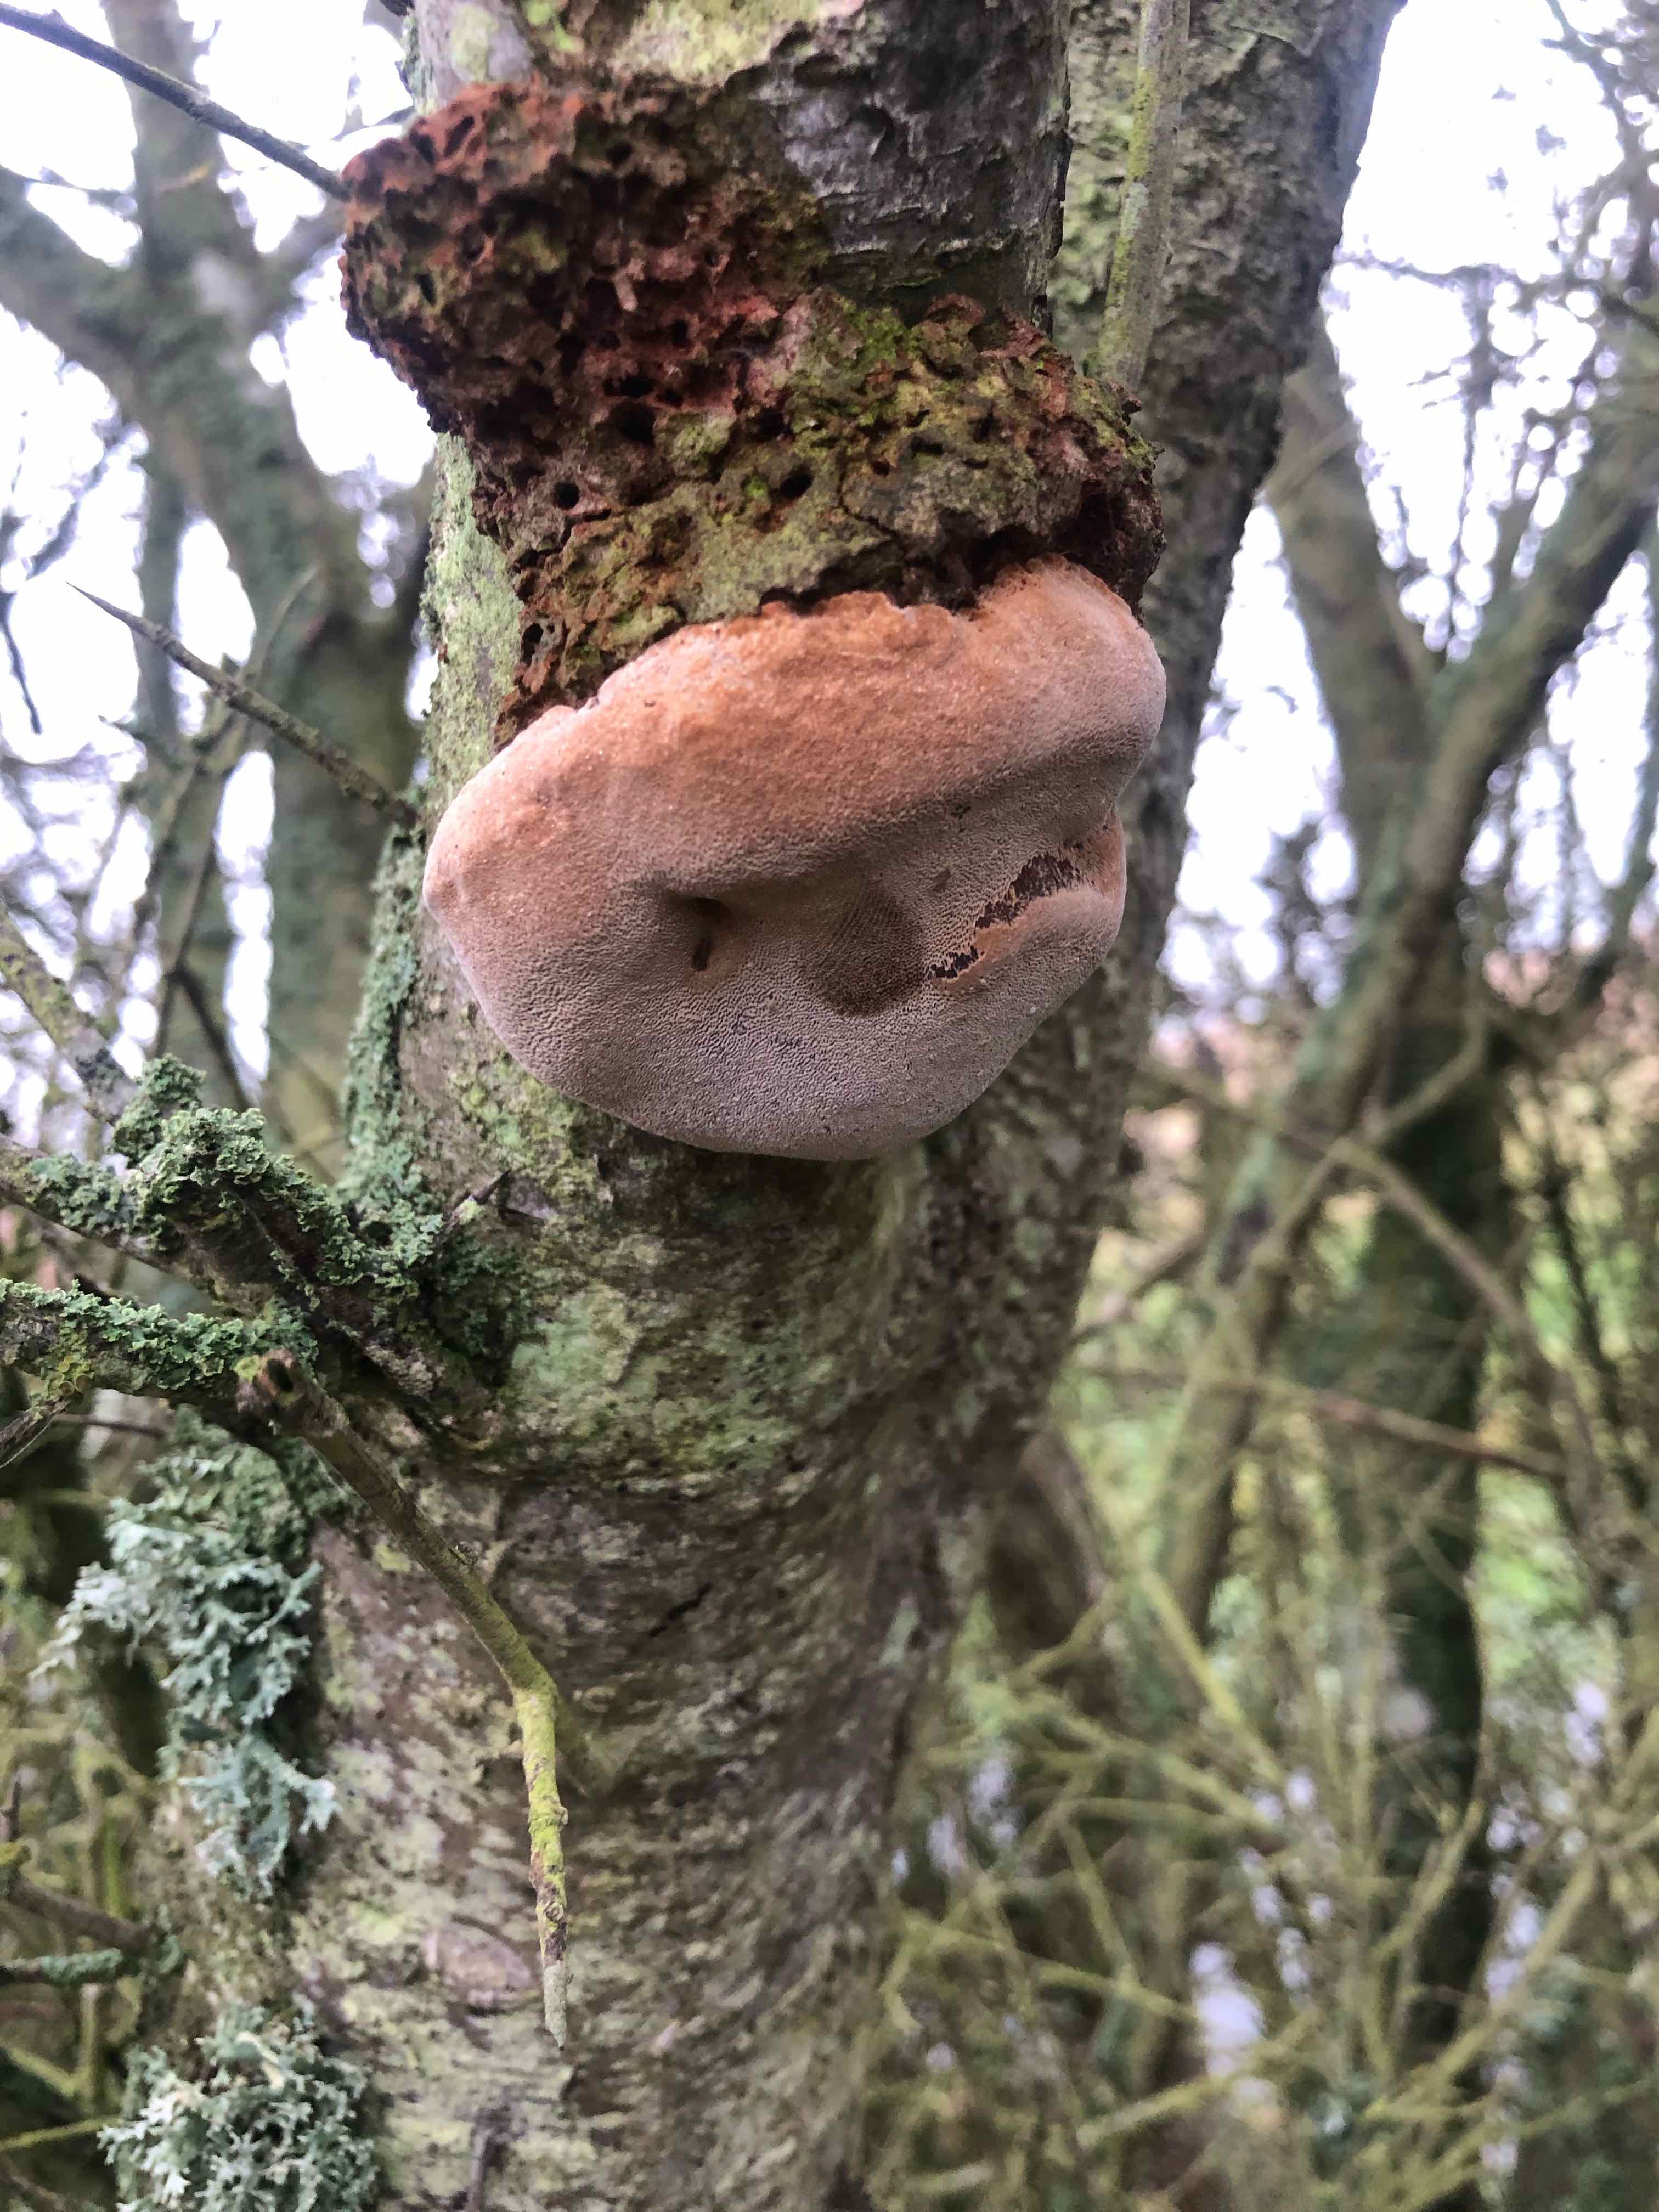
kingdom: Fungi
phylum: Basidiomycota
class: Agaricomycetes
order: Hymenochaetales
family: Hymenochaetaceae
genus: Phellinus
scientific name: Phellinus pomaceus
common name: blomme-ildporesvamp
